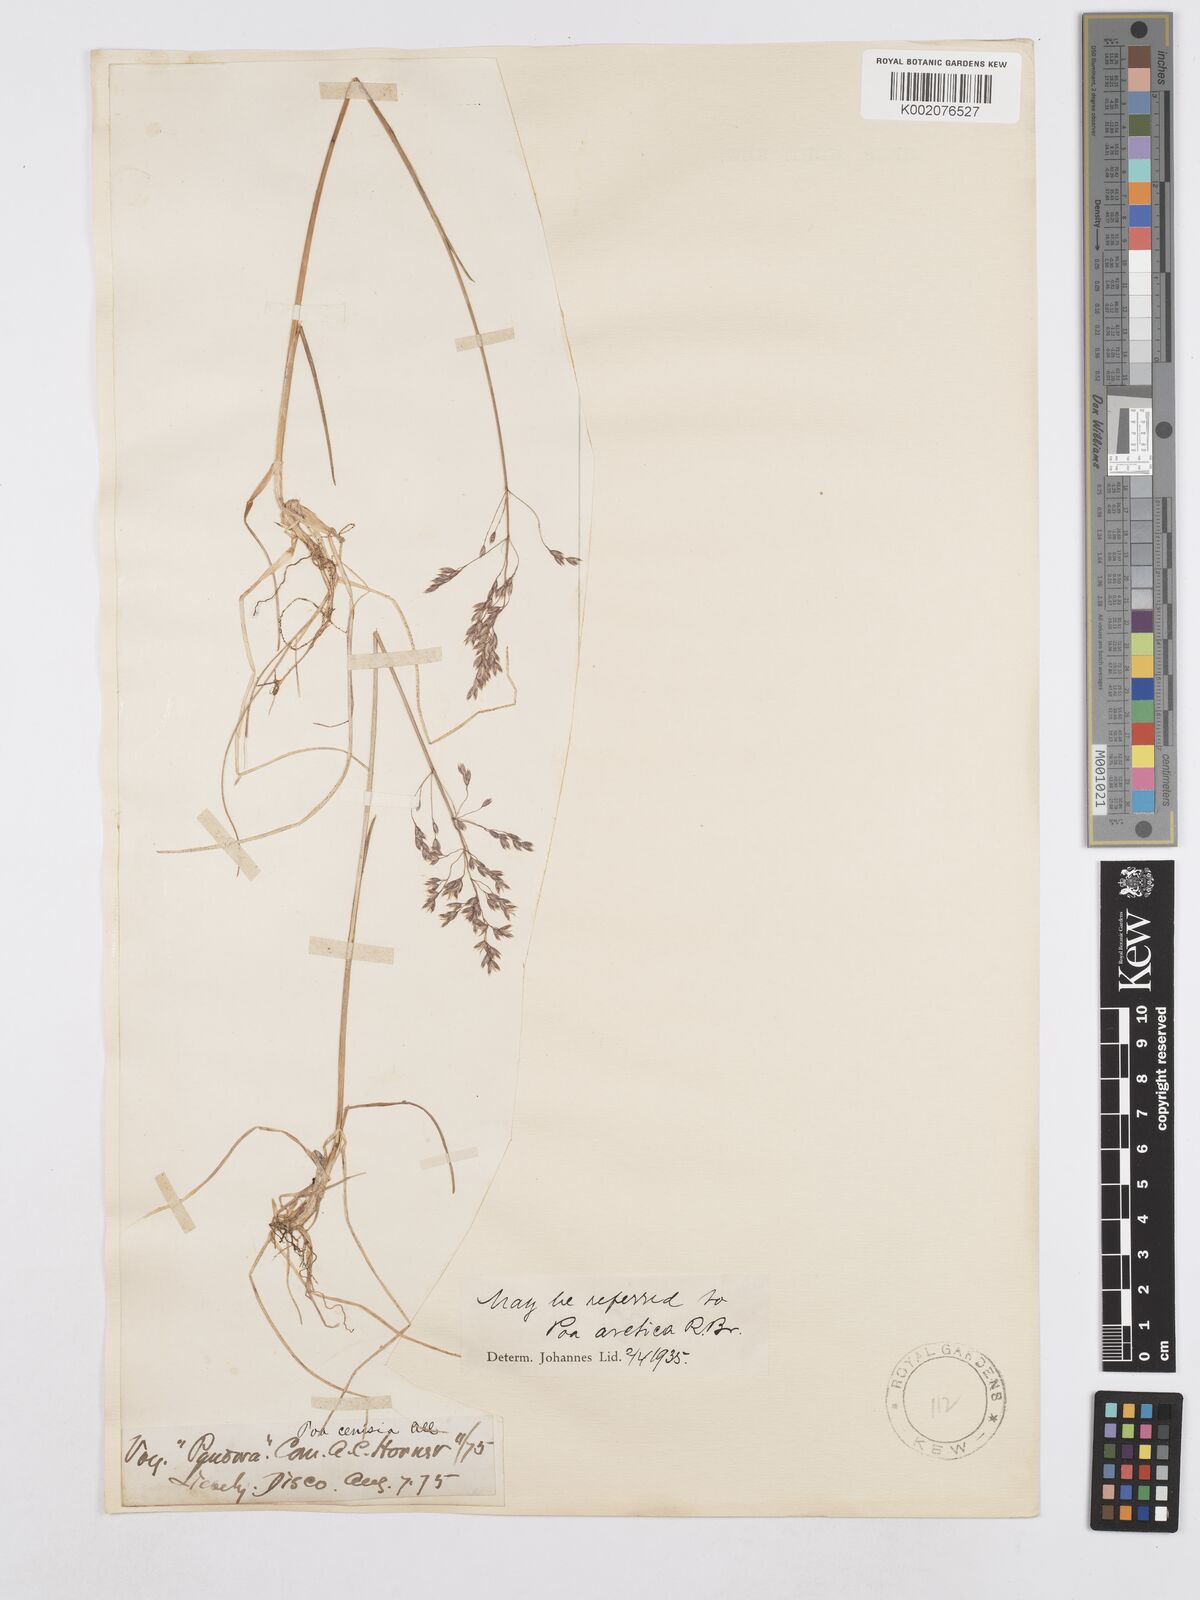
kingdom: Plantae
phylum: Tracheophyta
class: Liliopsida
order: Poales
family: Poaceae
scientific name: Poaceae
